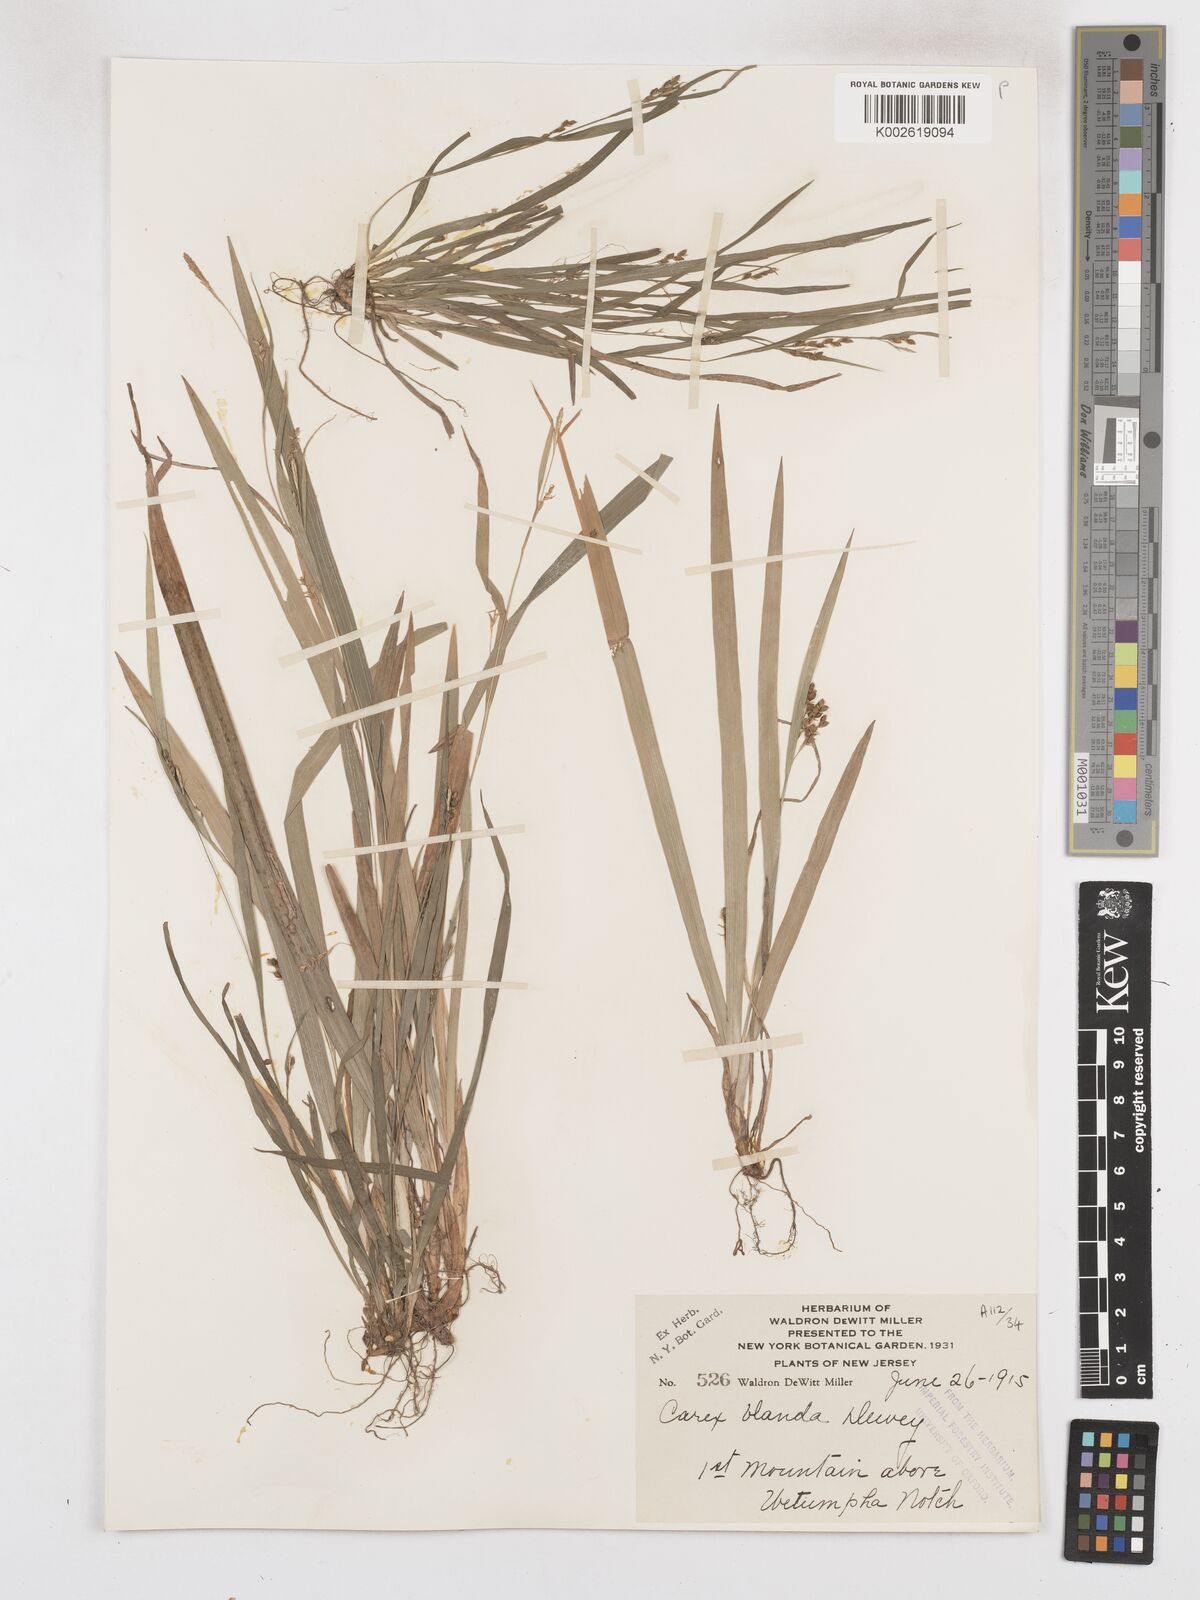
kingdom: Plantae
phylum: Tracheophyta
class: Liliopsida
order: Poales
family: Cyperaceae
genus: Carex
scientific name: Carex blanda
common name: Bland sedge
